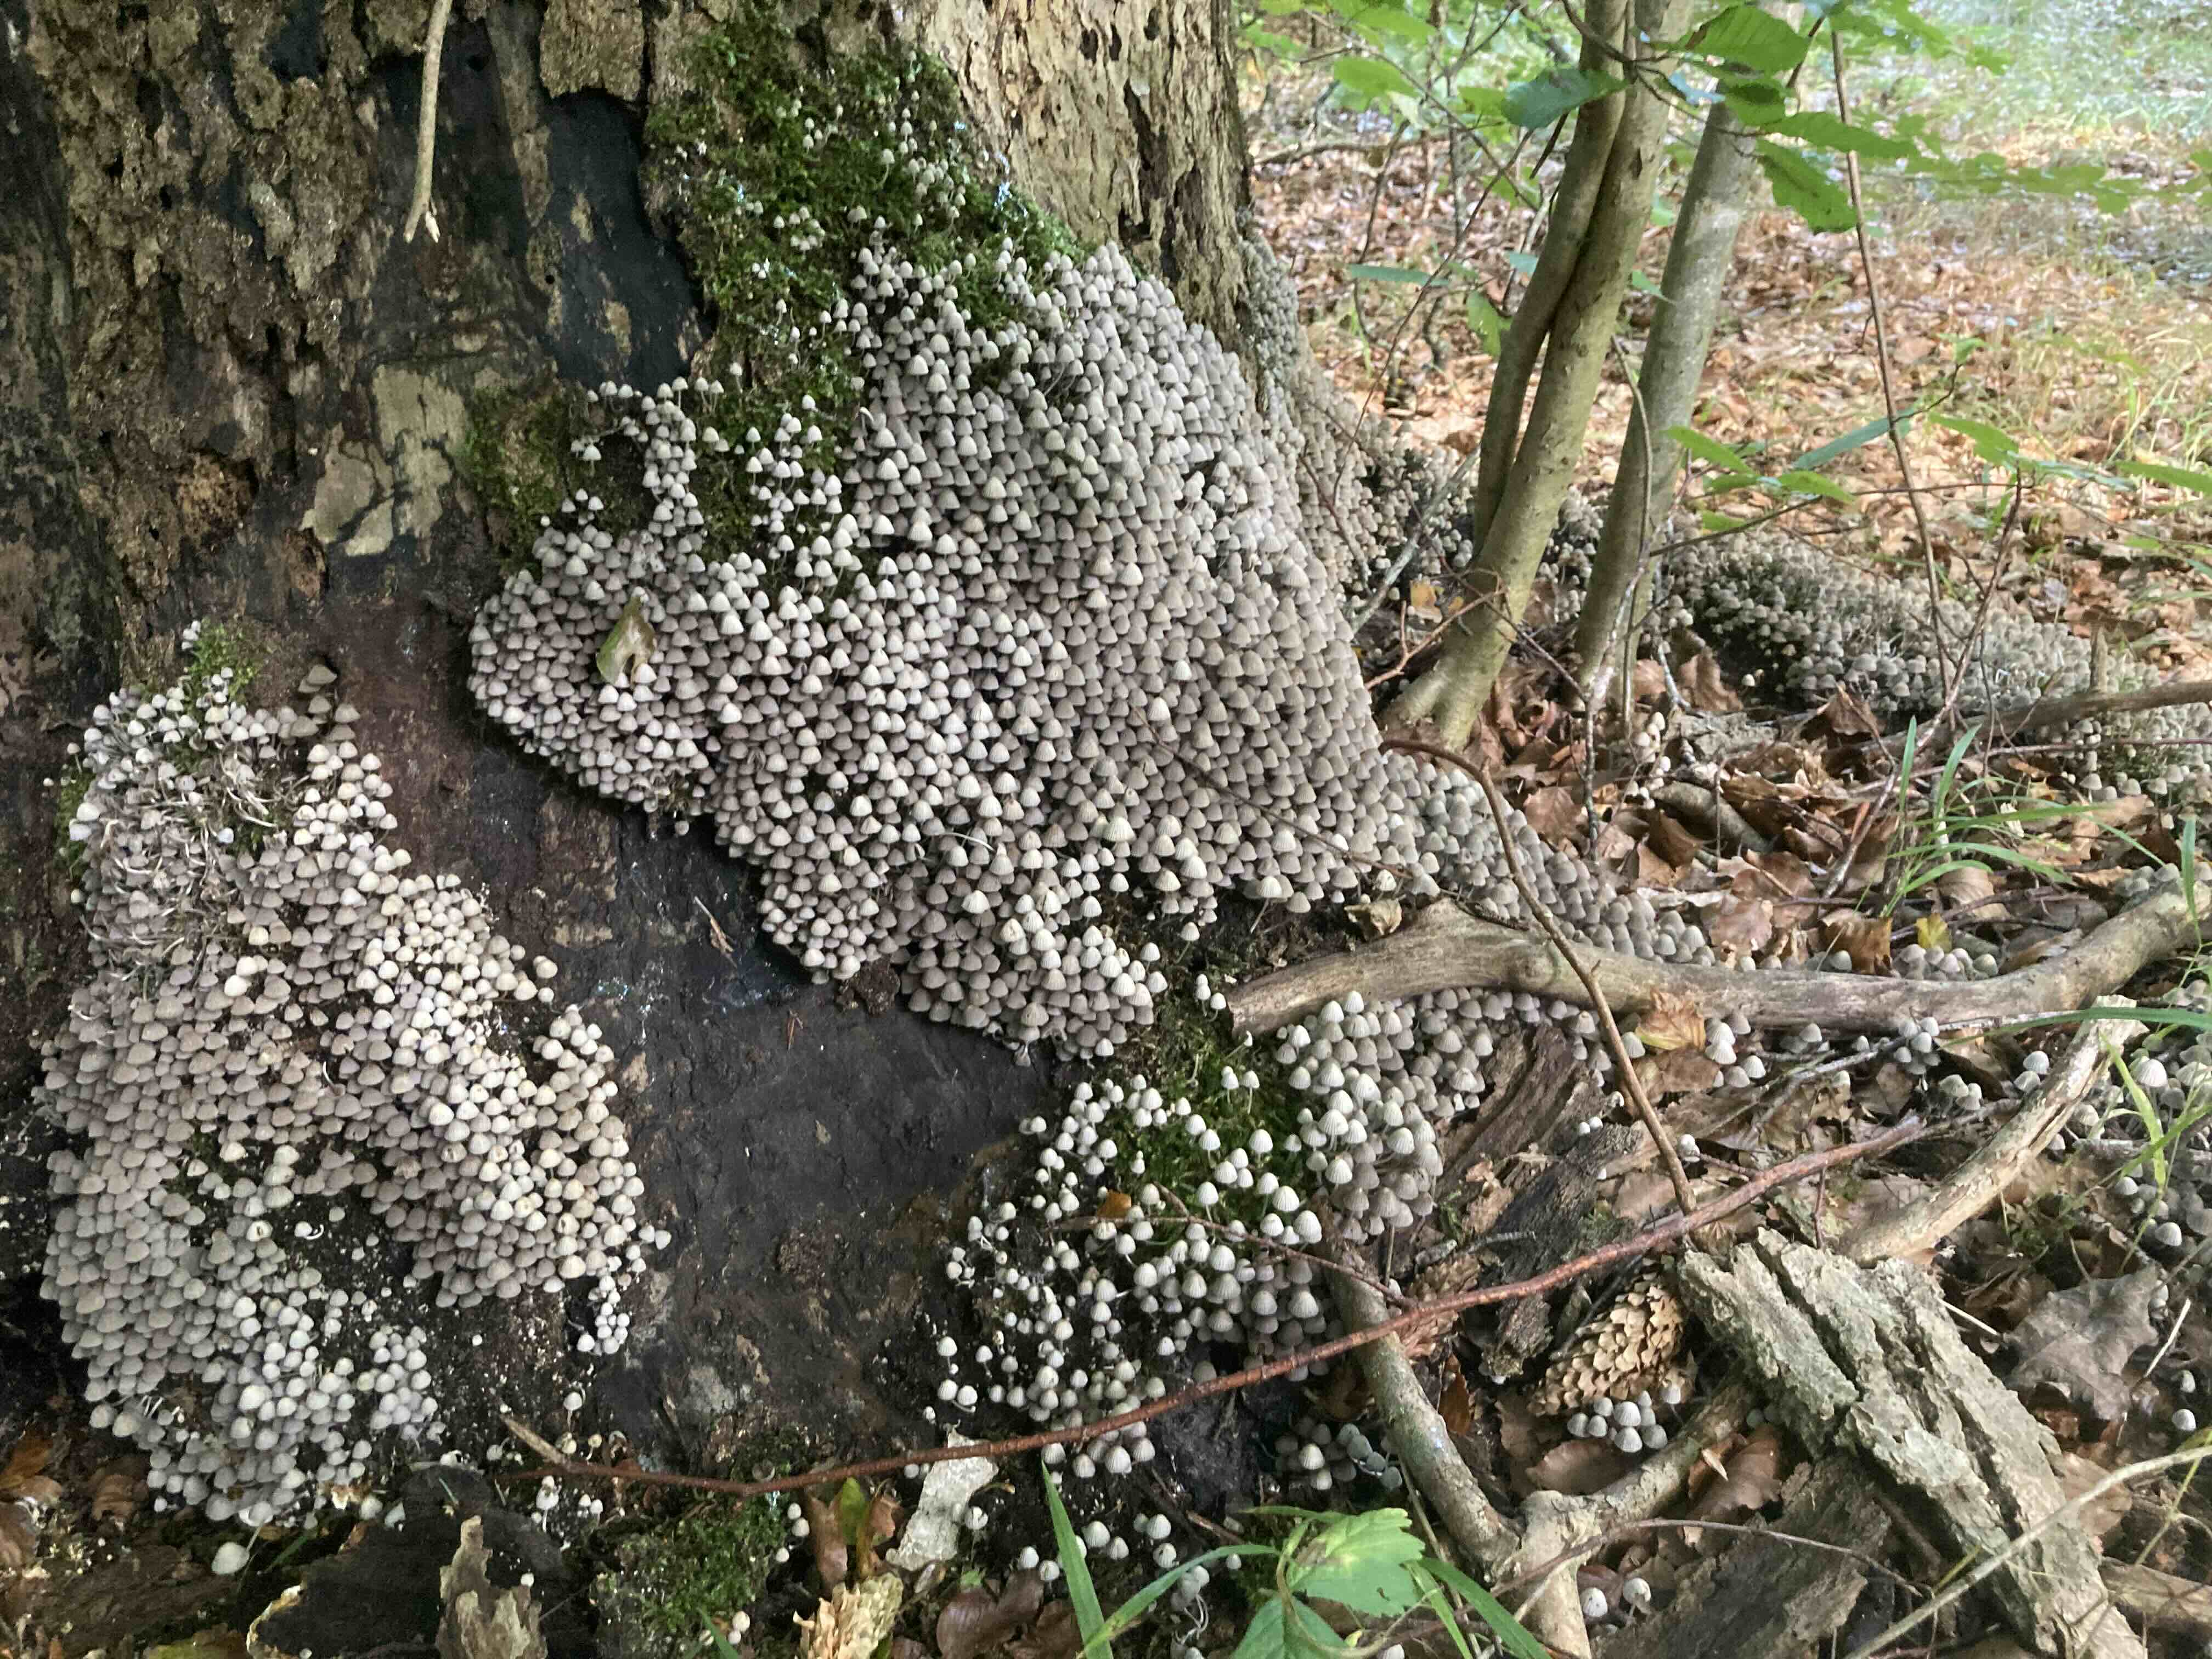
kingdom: Fungi
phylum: Basidiomycota
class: Agaricomycetes
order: Agaricales
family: Psathyrellaceae
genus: Coprinellus
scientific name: Coprinellus disseminatus
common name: bredsået blækhat
